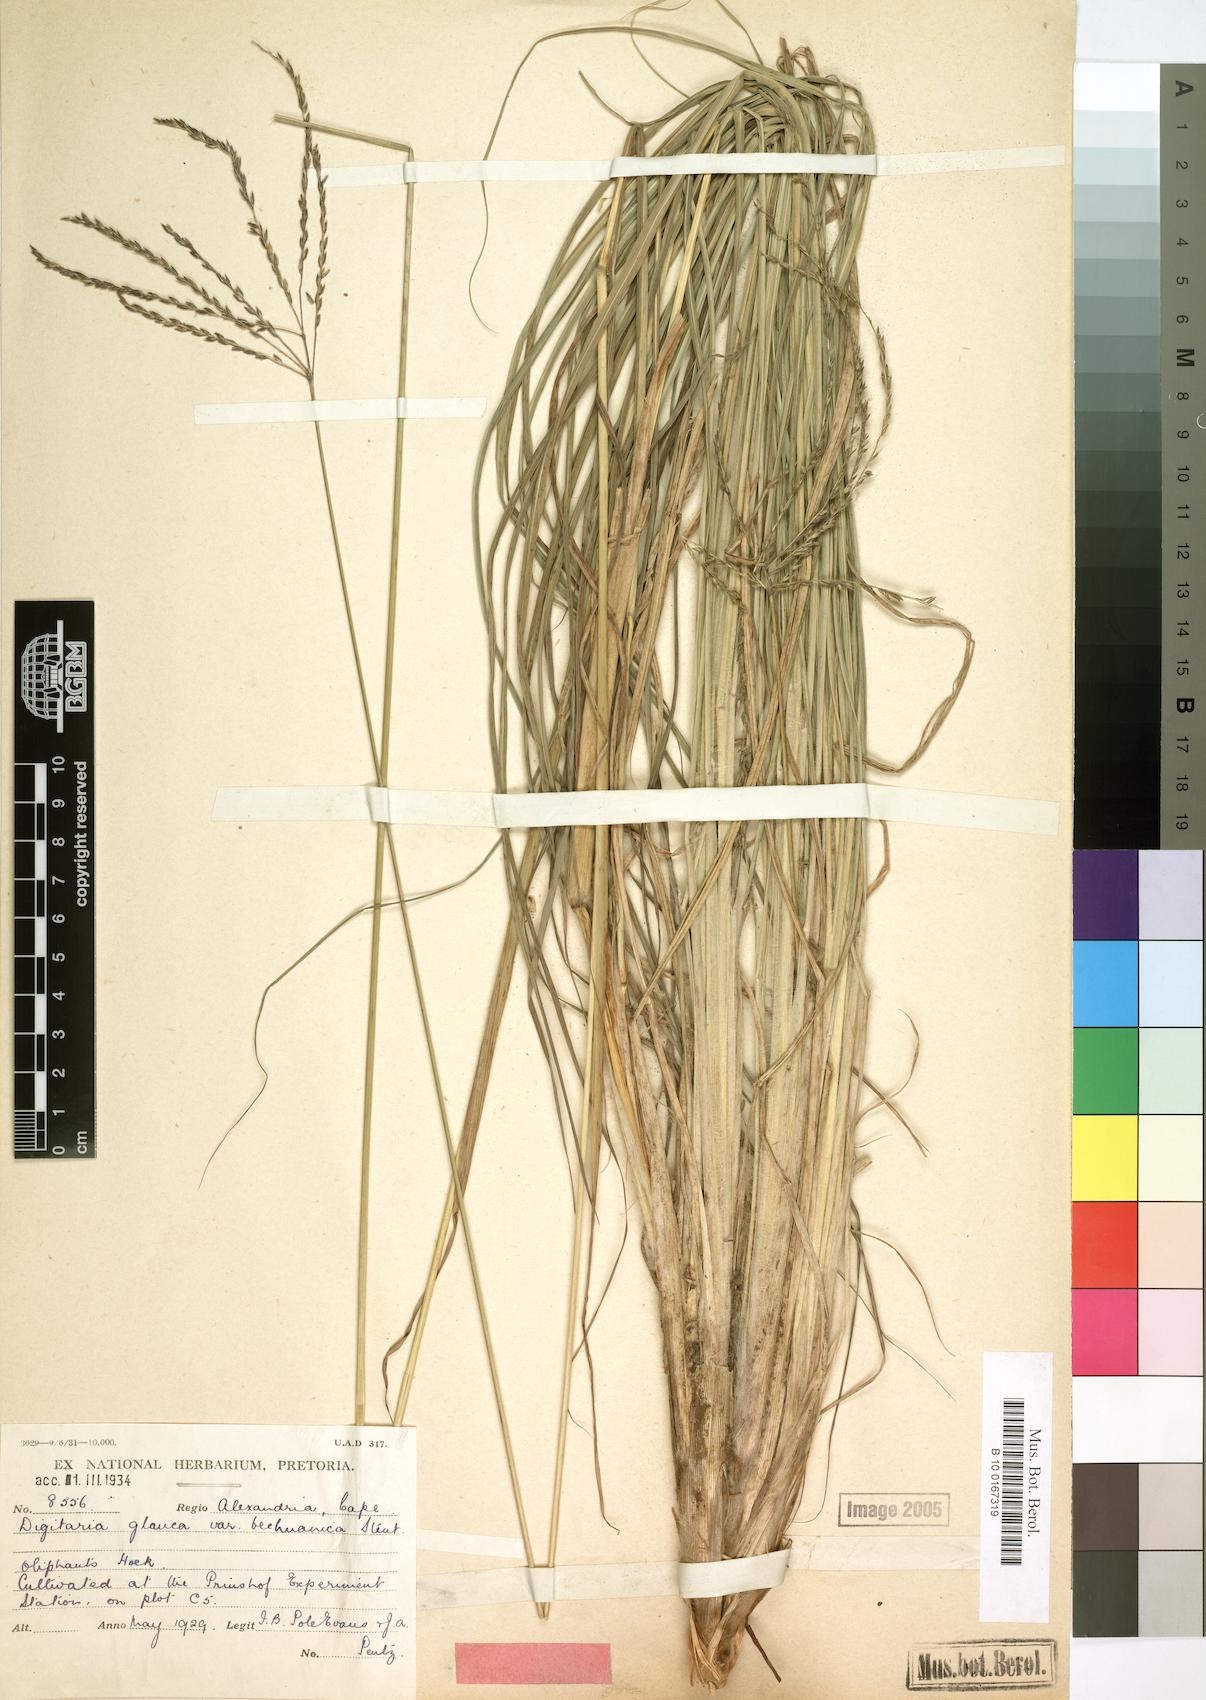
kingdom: Plantae
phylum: Tracheophyta
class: Liliopsida
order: Poales
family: Poaceae
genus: Digitaria
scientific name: Digitaria eriantha
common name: Digitgrass
